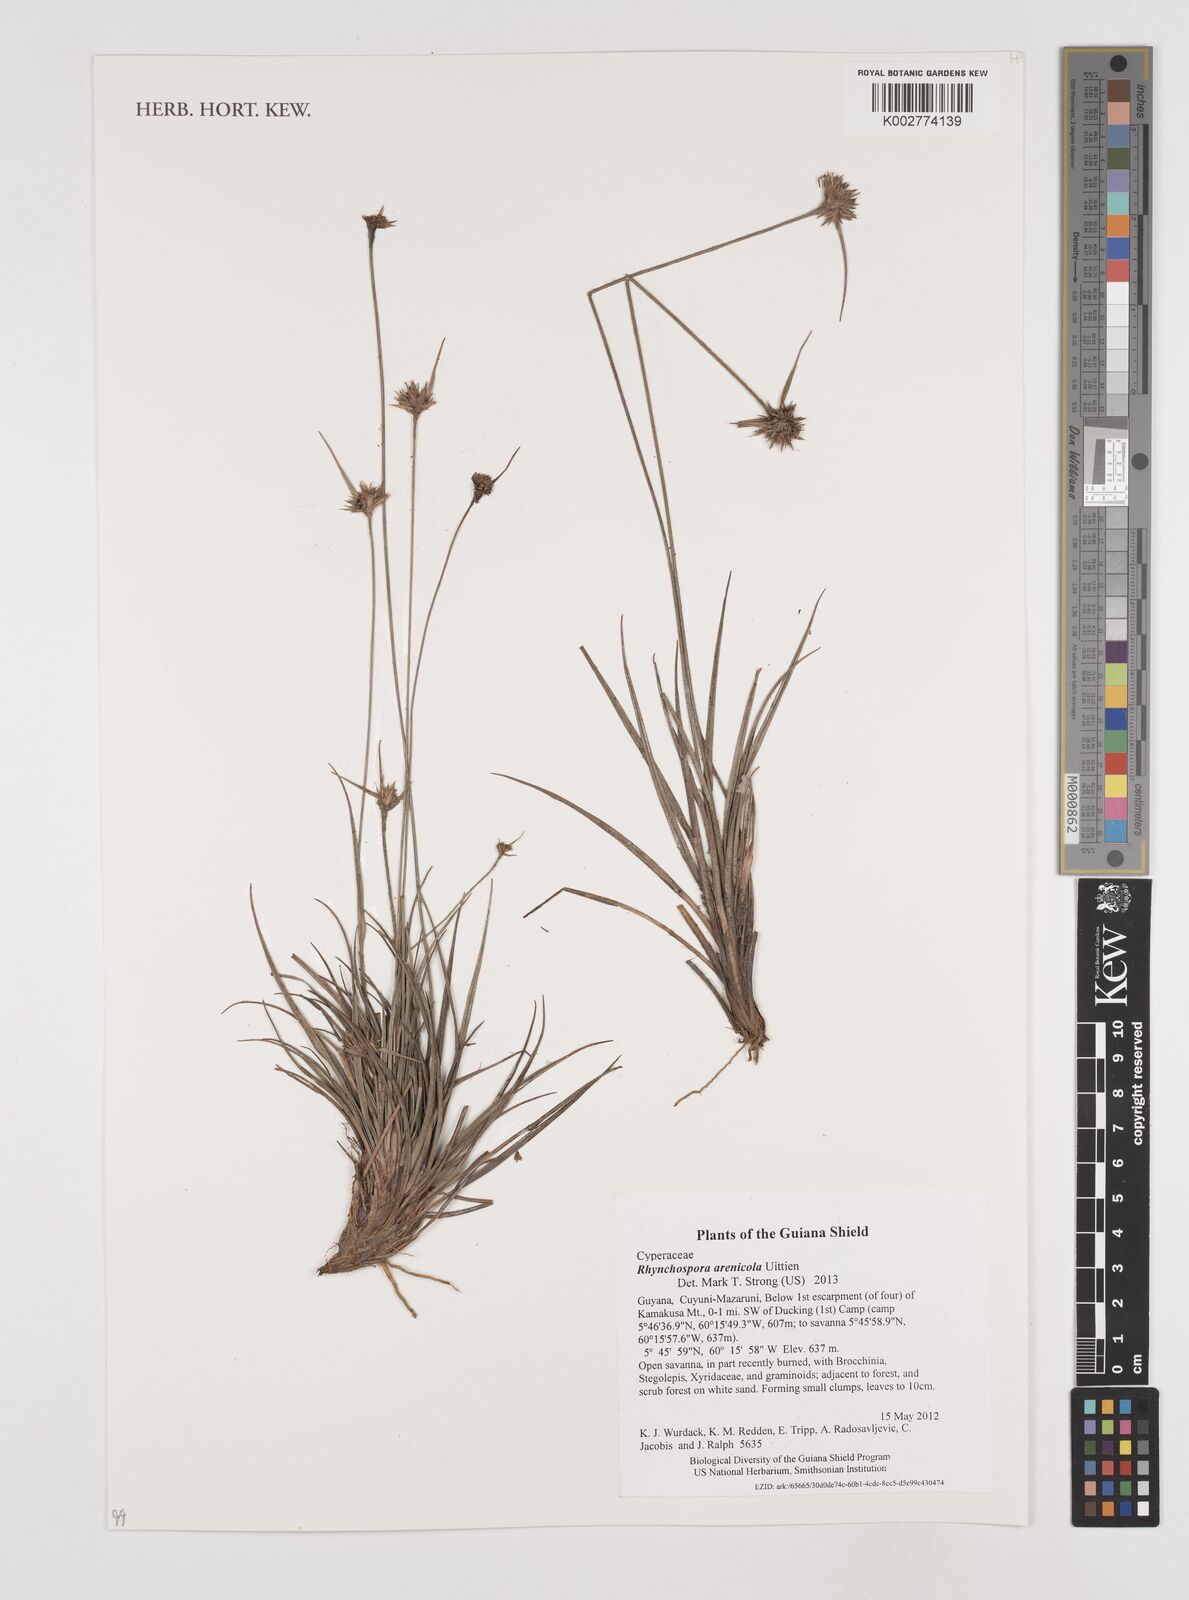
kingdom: Plantae
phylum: Tracheophyta
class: Liliopsida
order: Poales
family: Cyperaceae
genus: Rhynchospora
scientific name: Rhynchospora arenicola
